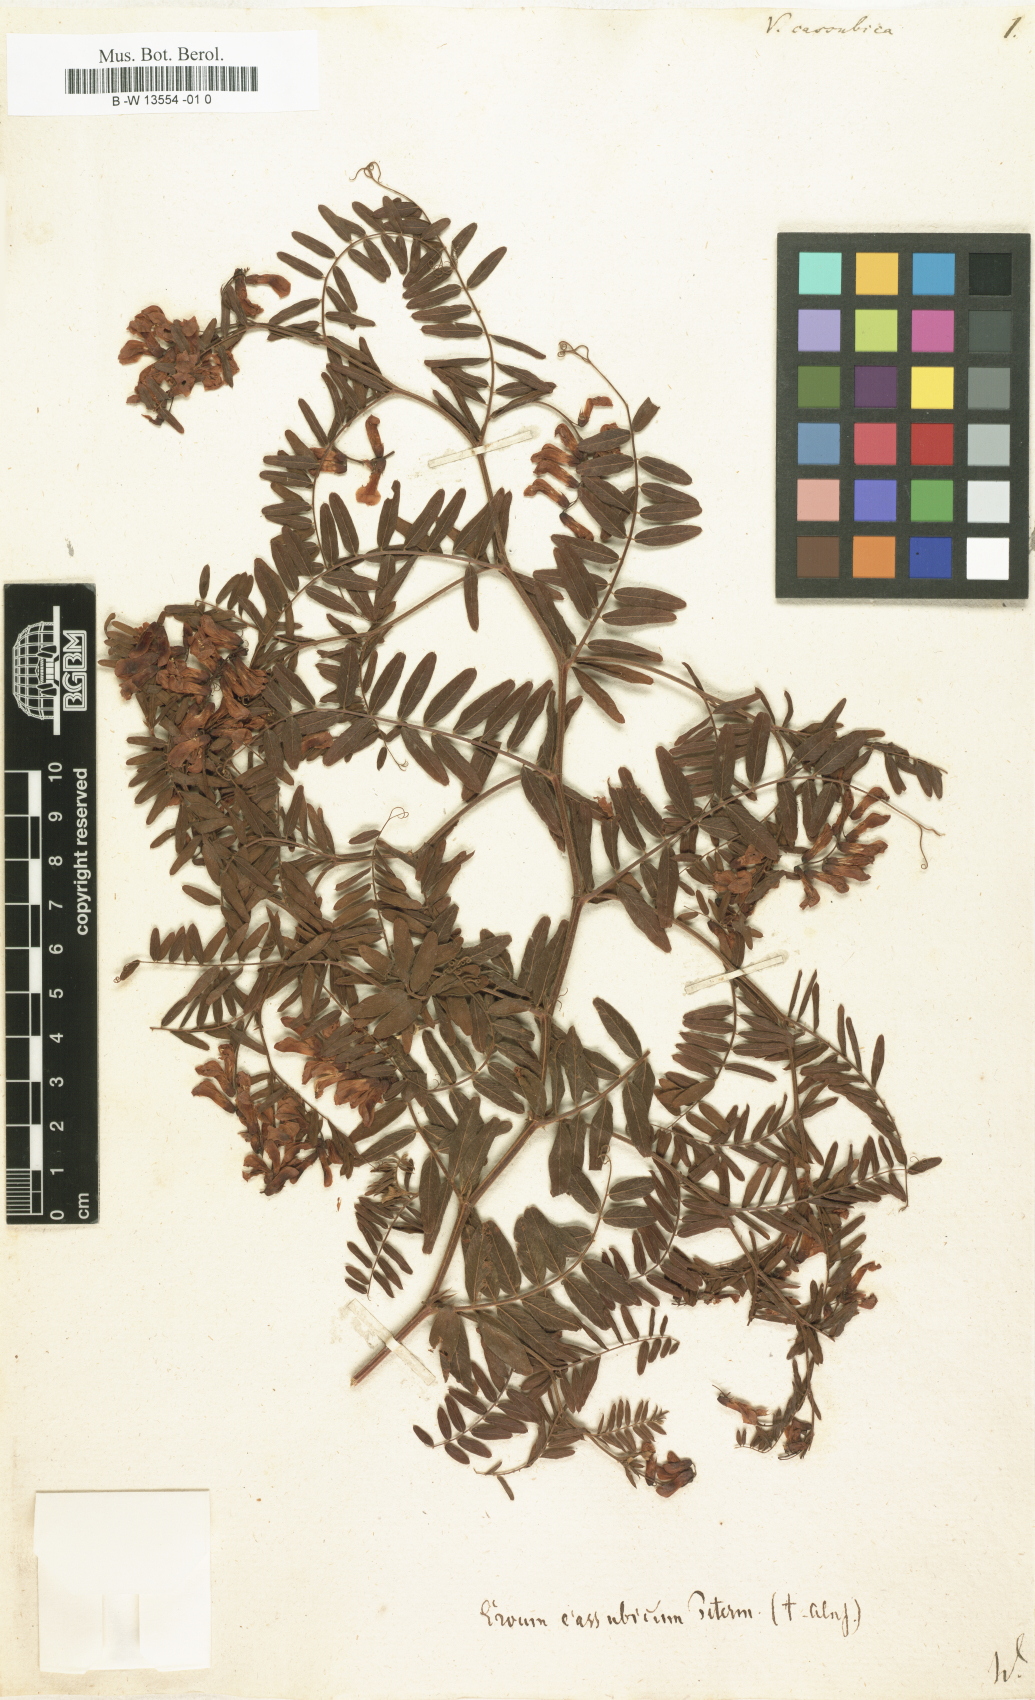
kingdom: Plantae
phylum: Tracheophyta
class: Magnoliopsida
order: Fabales
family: Fabaceae
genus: Vicia
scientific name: Vicia cassubica
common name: Danzig vetch
